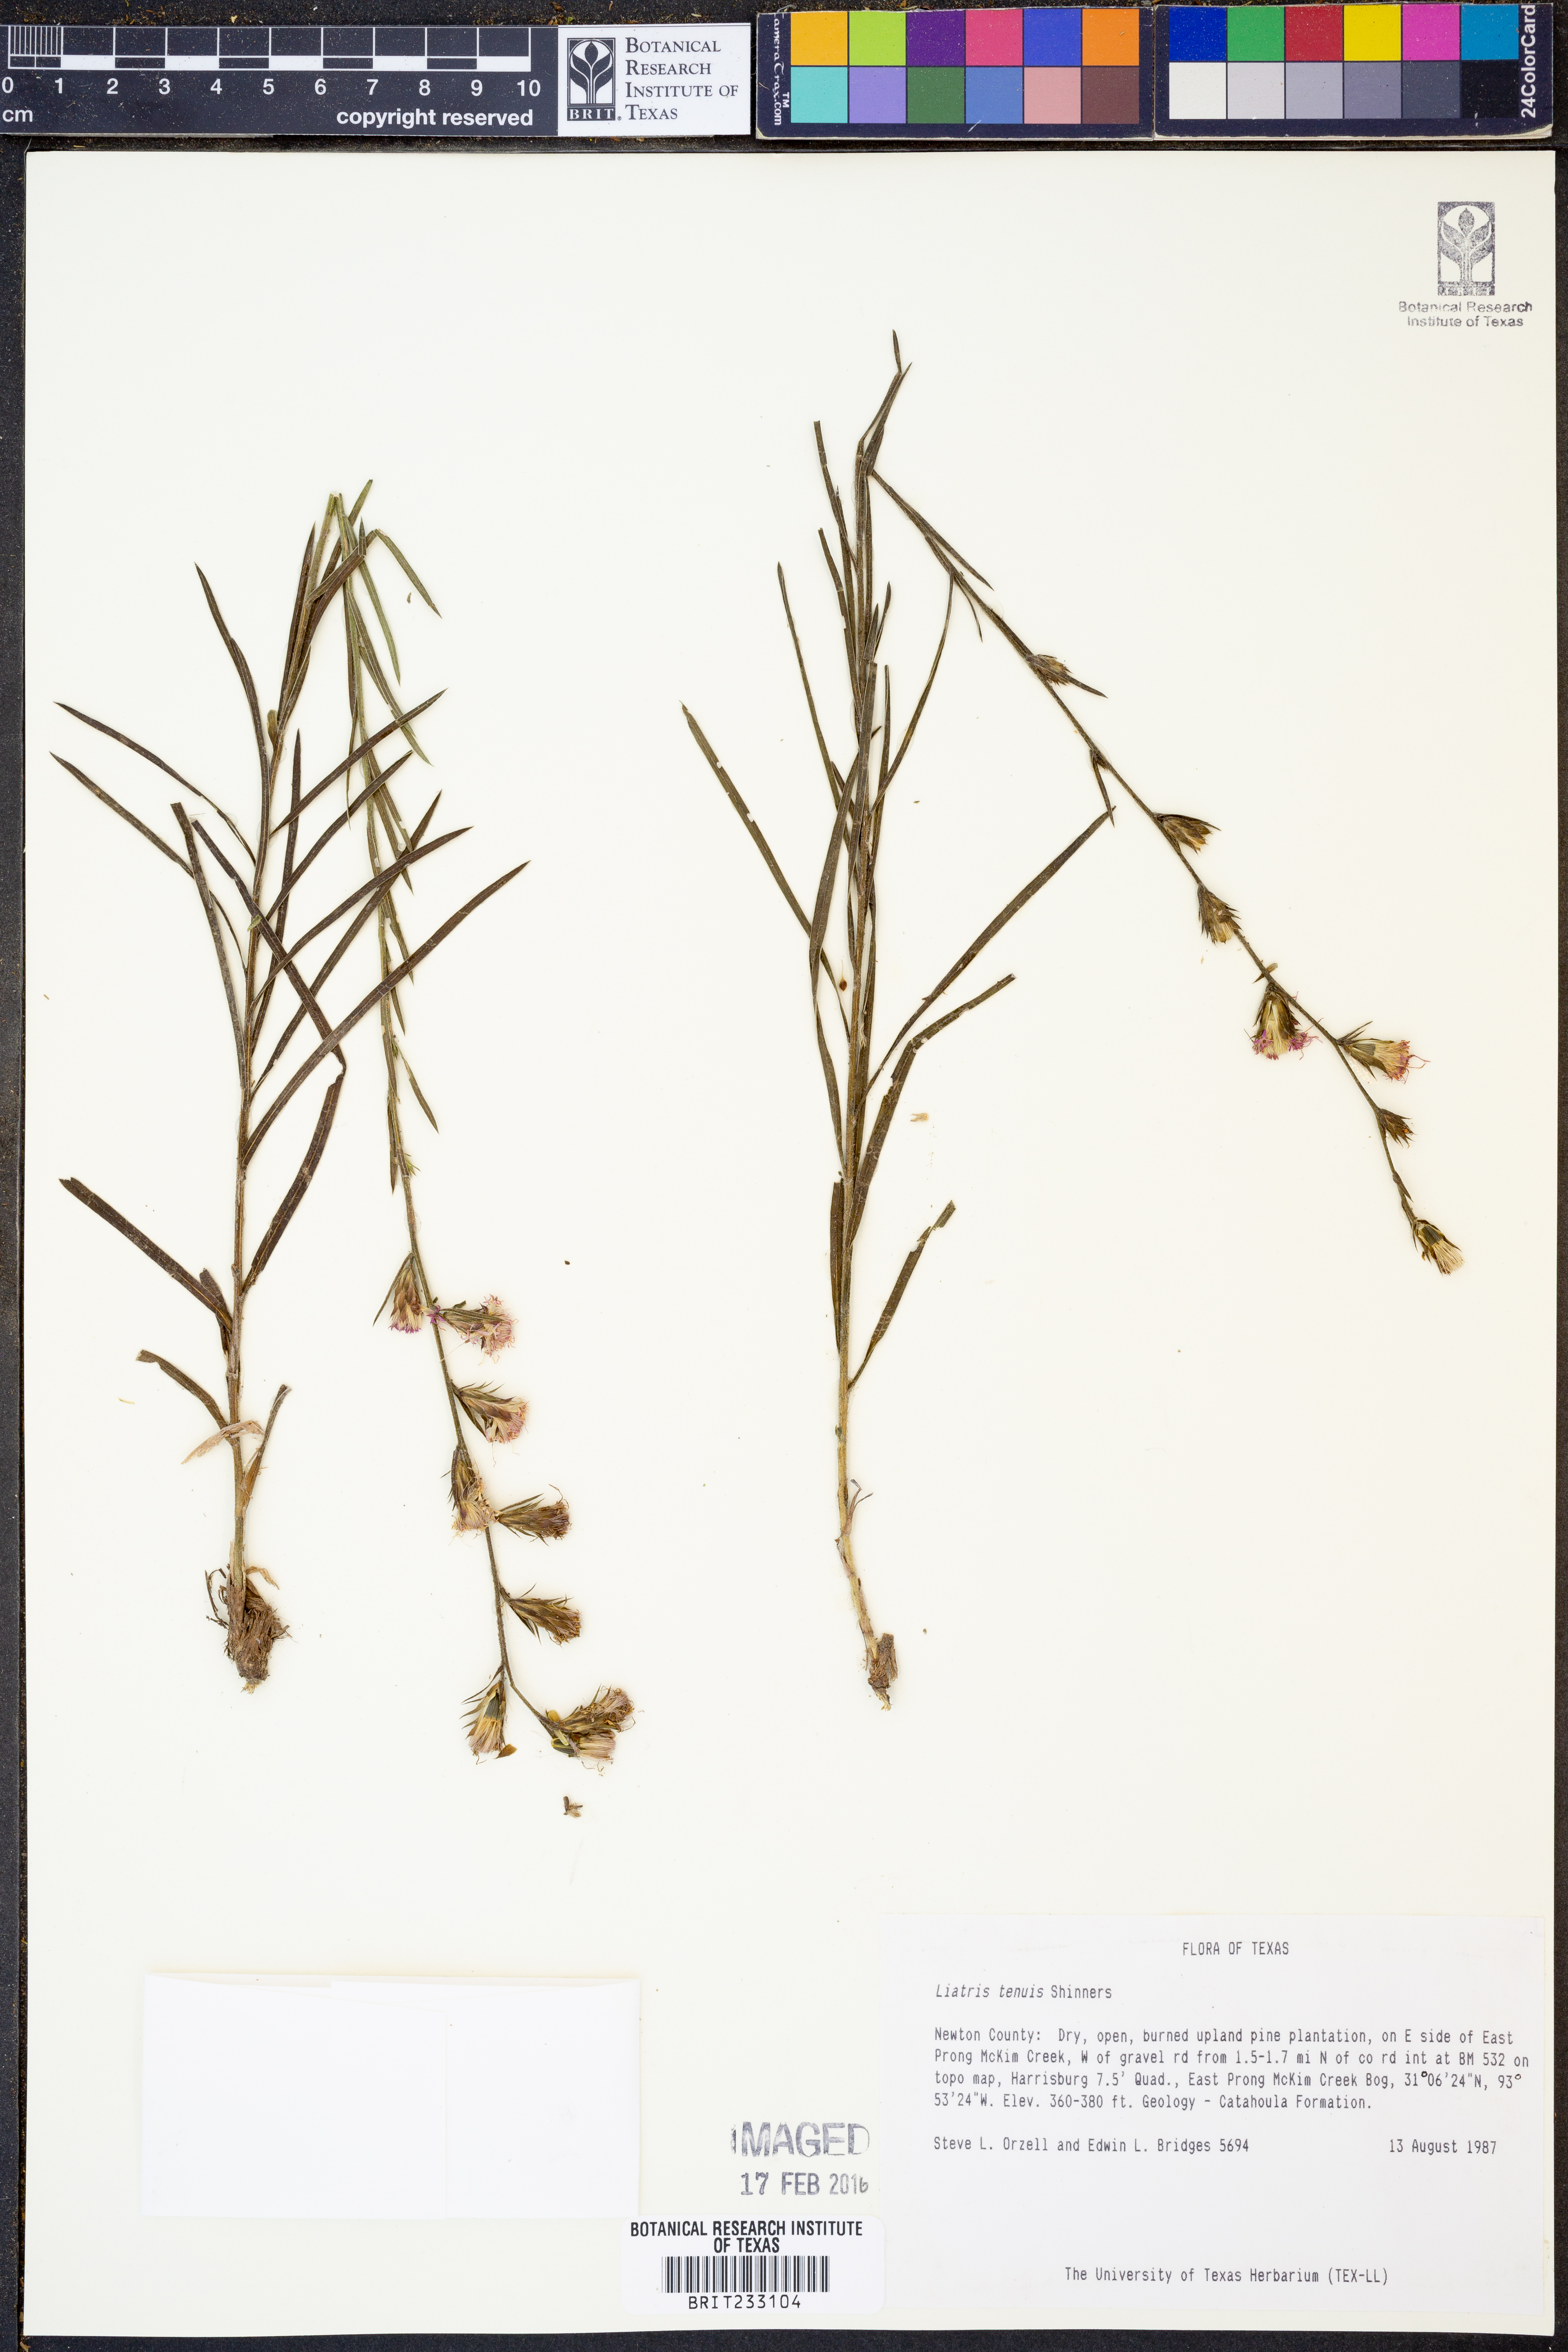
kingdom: Plantae
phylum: Tracheophyta
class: Magnoliopsida
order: Asterales
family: Asteraceae
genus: Liatris
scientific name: Liatris tenuis
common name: Shinner's gayfeather
